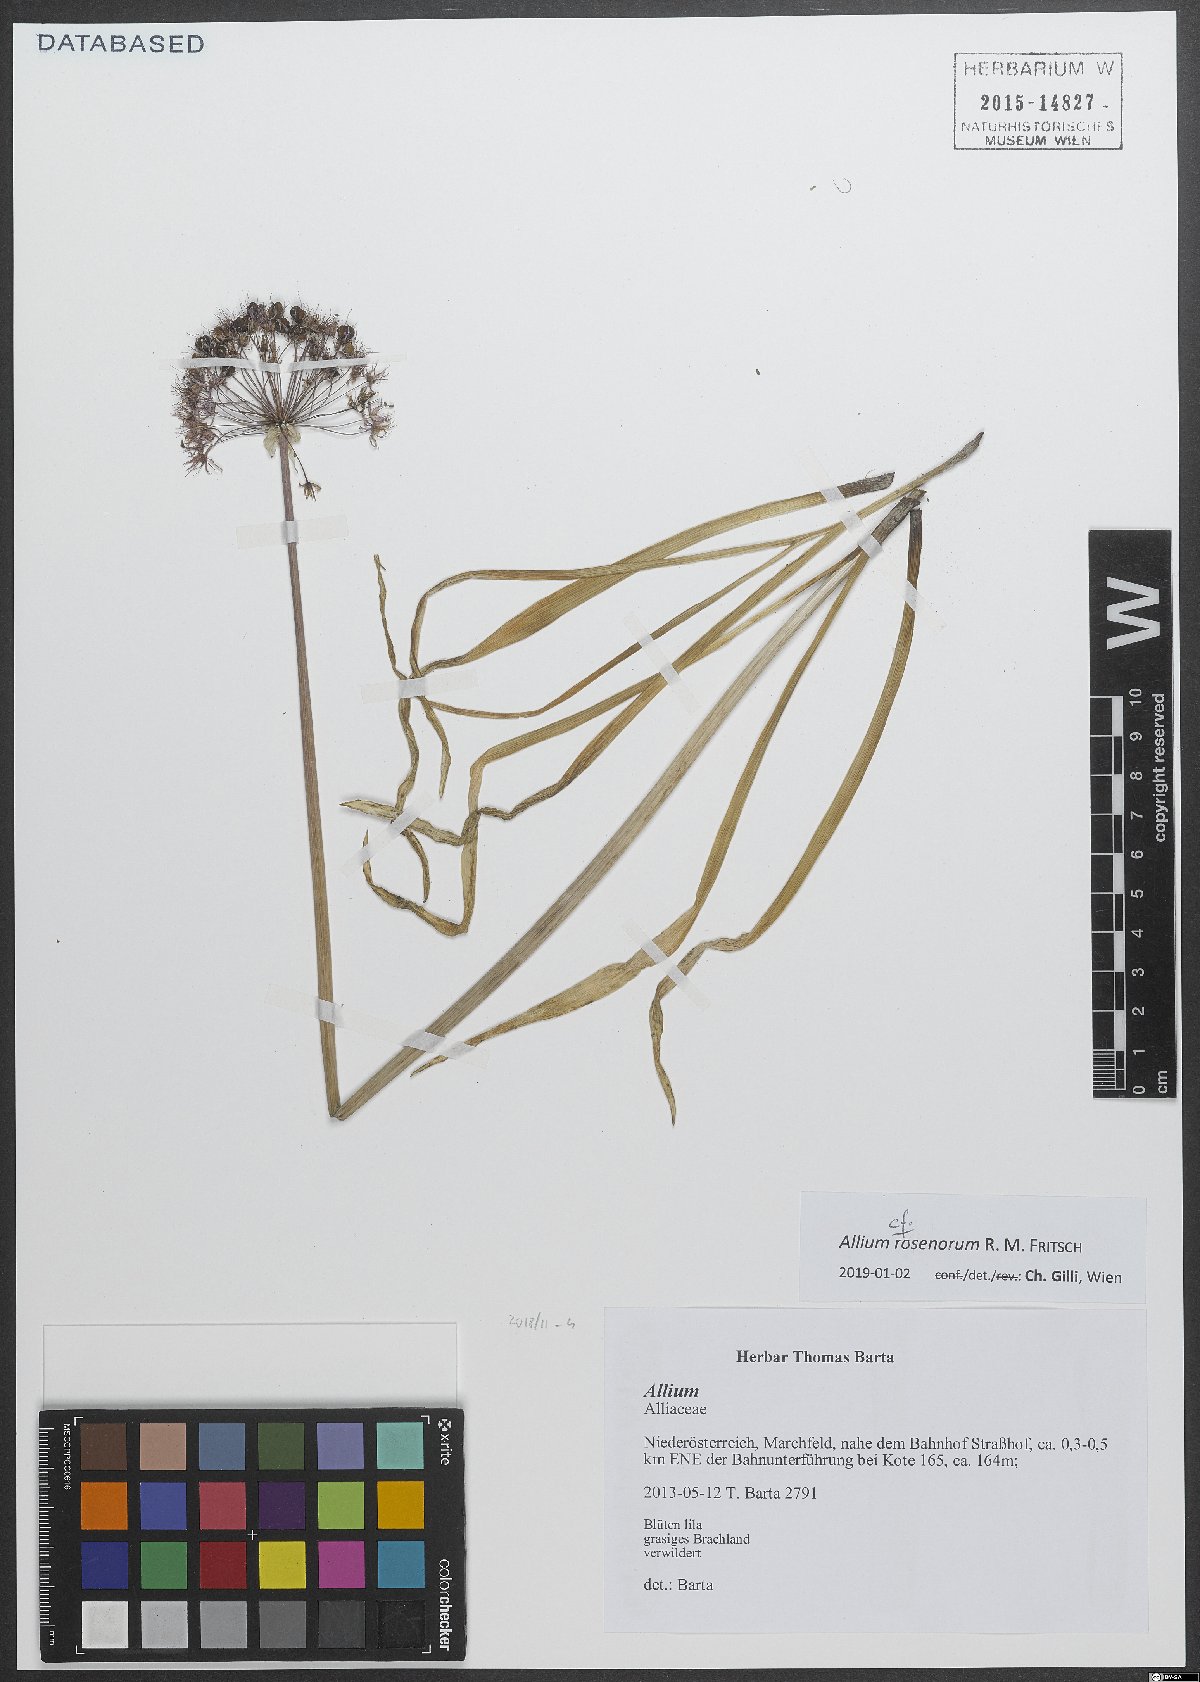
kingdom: Plantae
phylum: Tracheophyta
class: Liliopsida
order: Asparagales
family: Amaryllidaceae
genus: Allium
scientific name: Allium rosenorum
